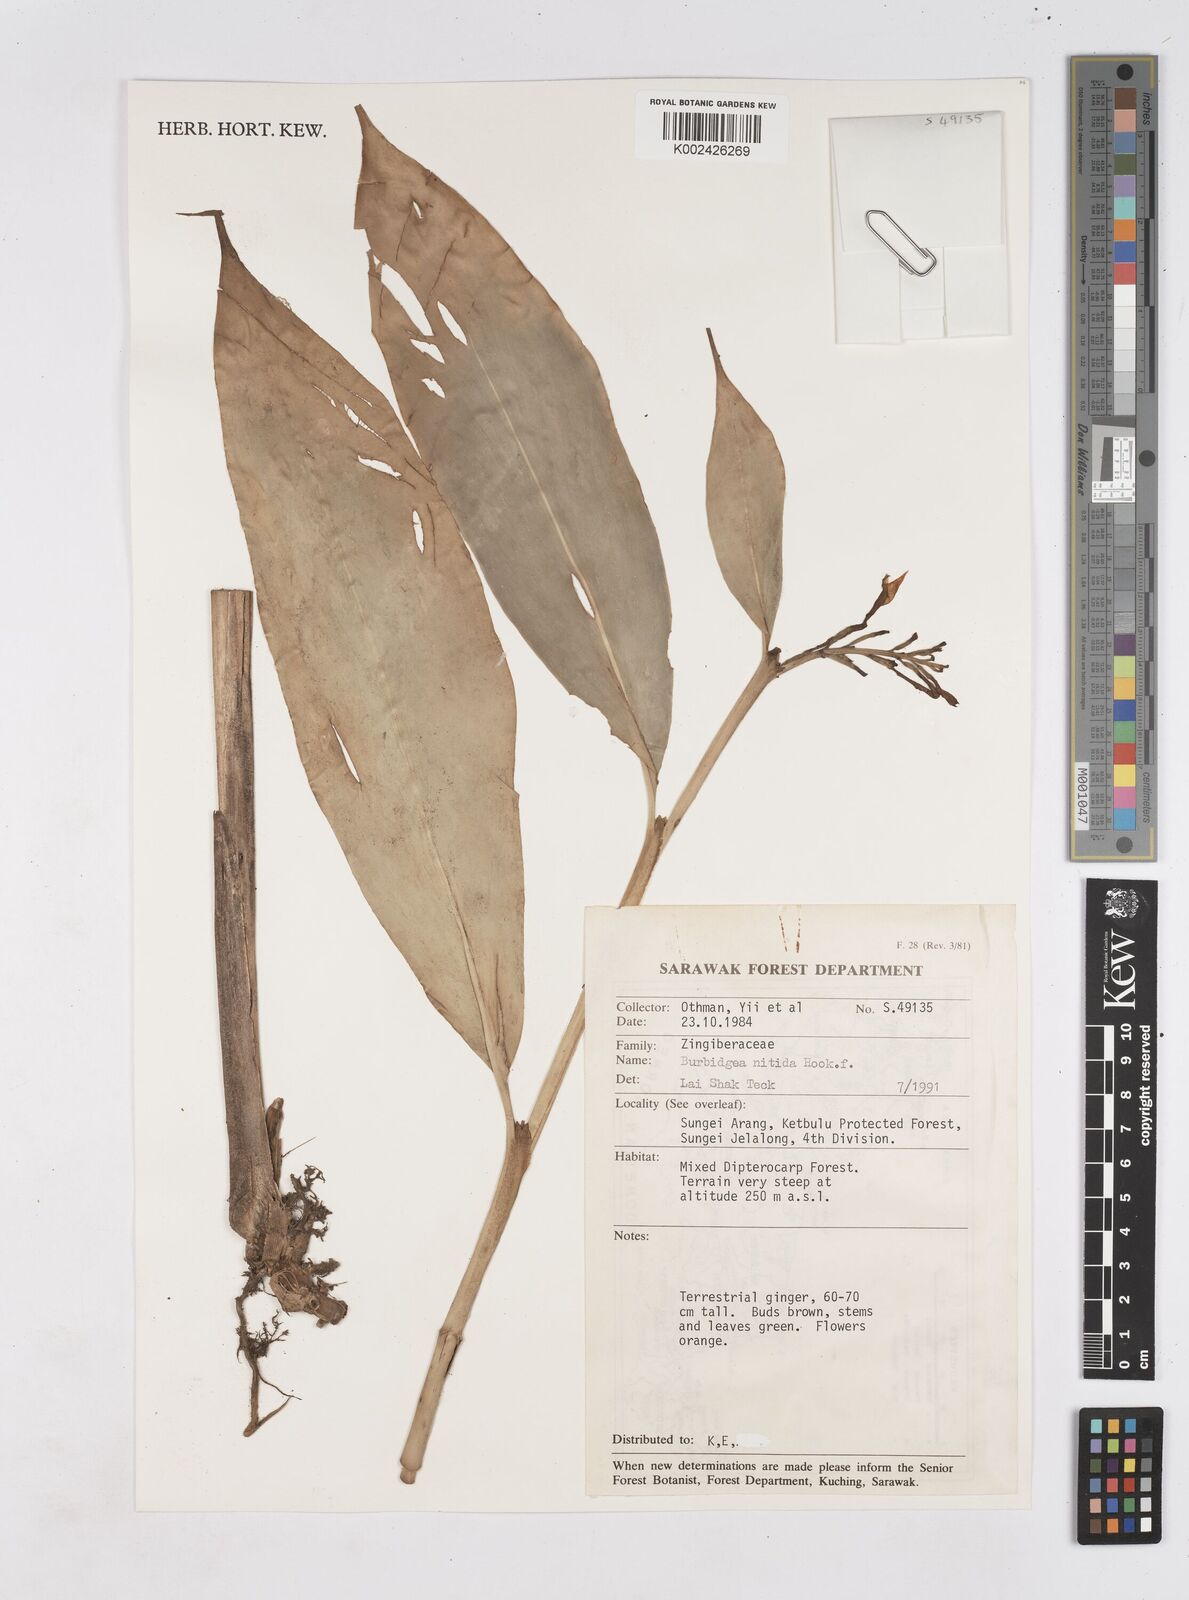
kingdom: Plantae
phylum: Tracheophyta
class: Liliopsida
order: Zingiberales
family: Zingiberaceae
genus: Burbidgea
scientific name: Burbidgea nitida
